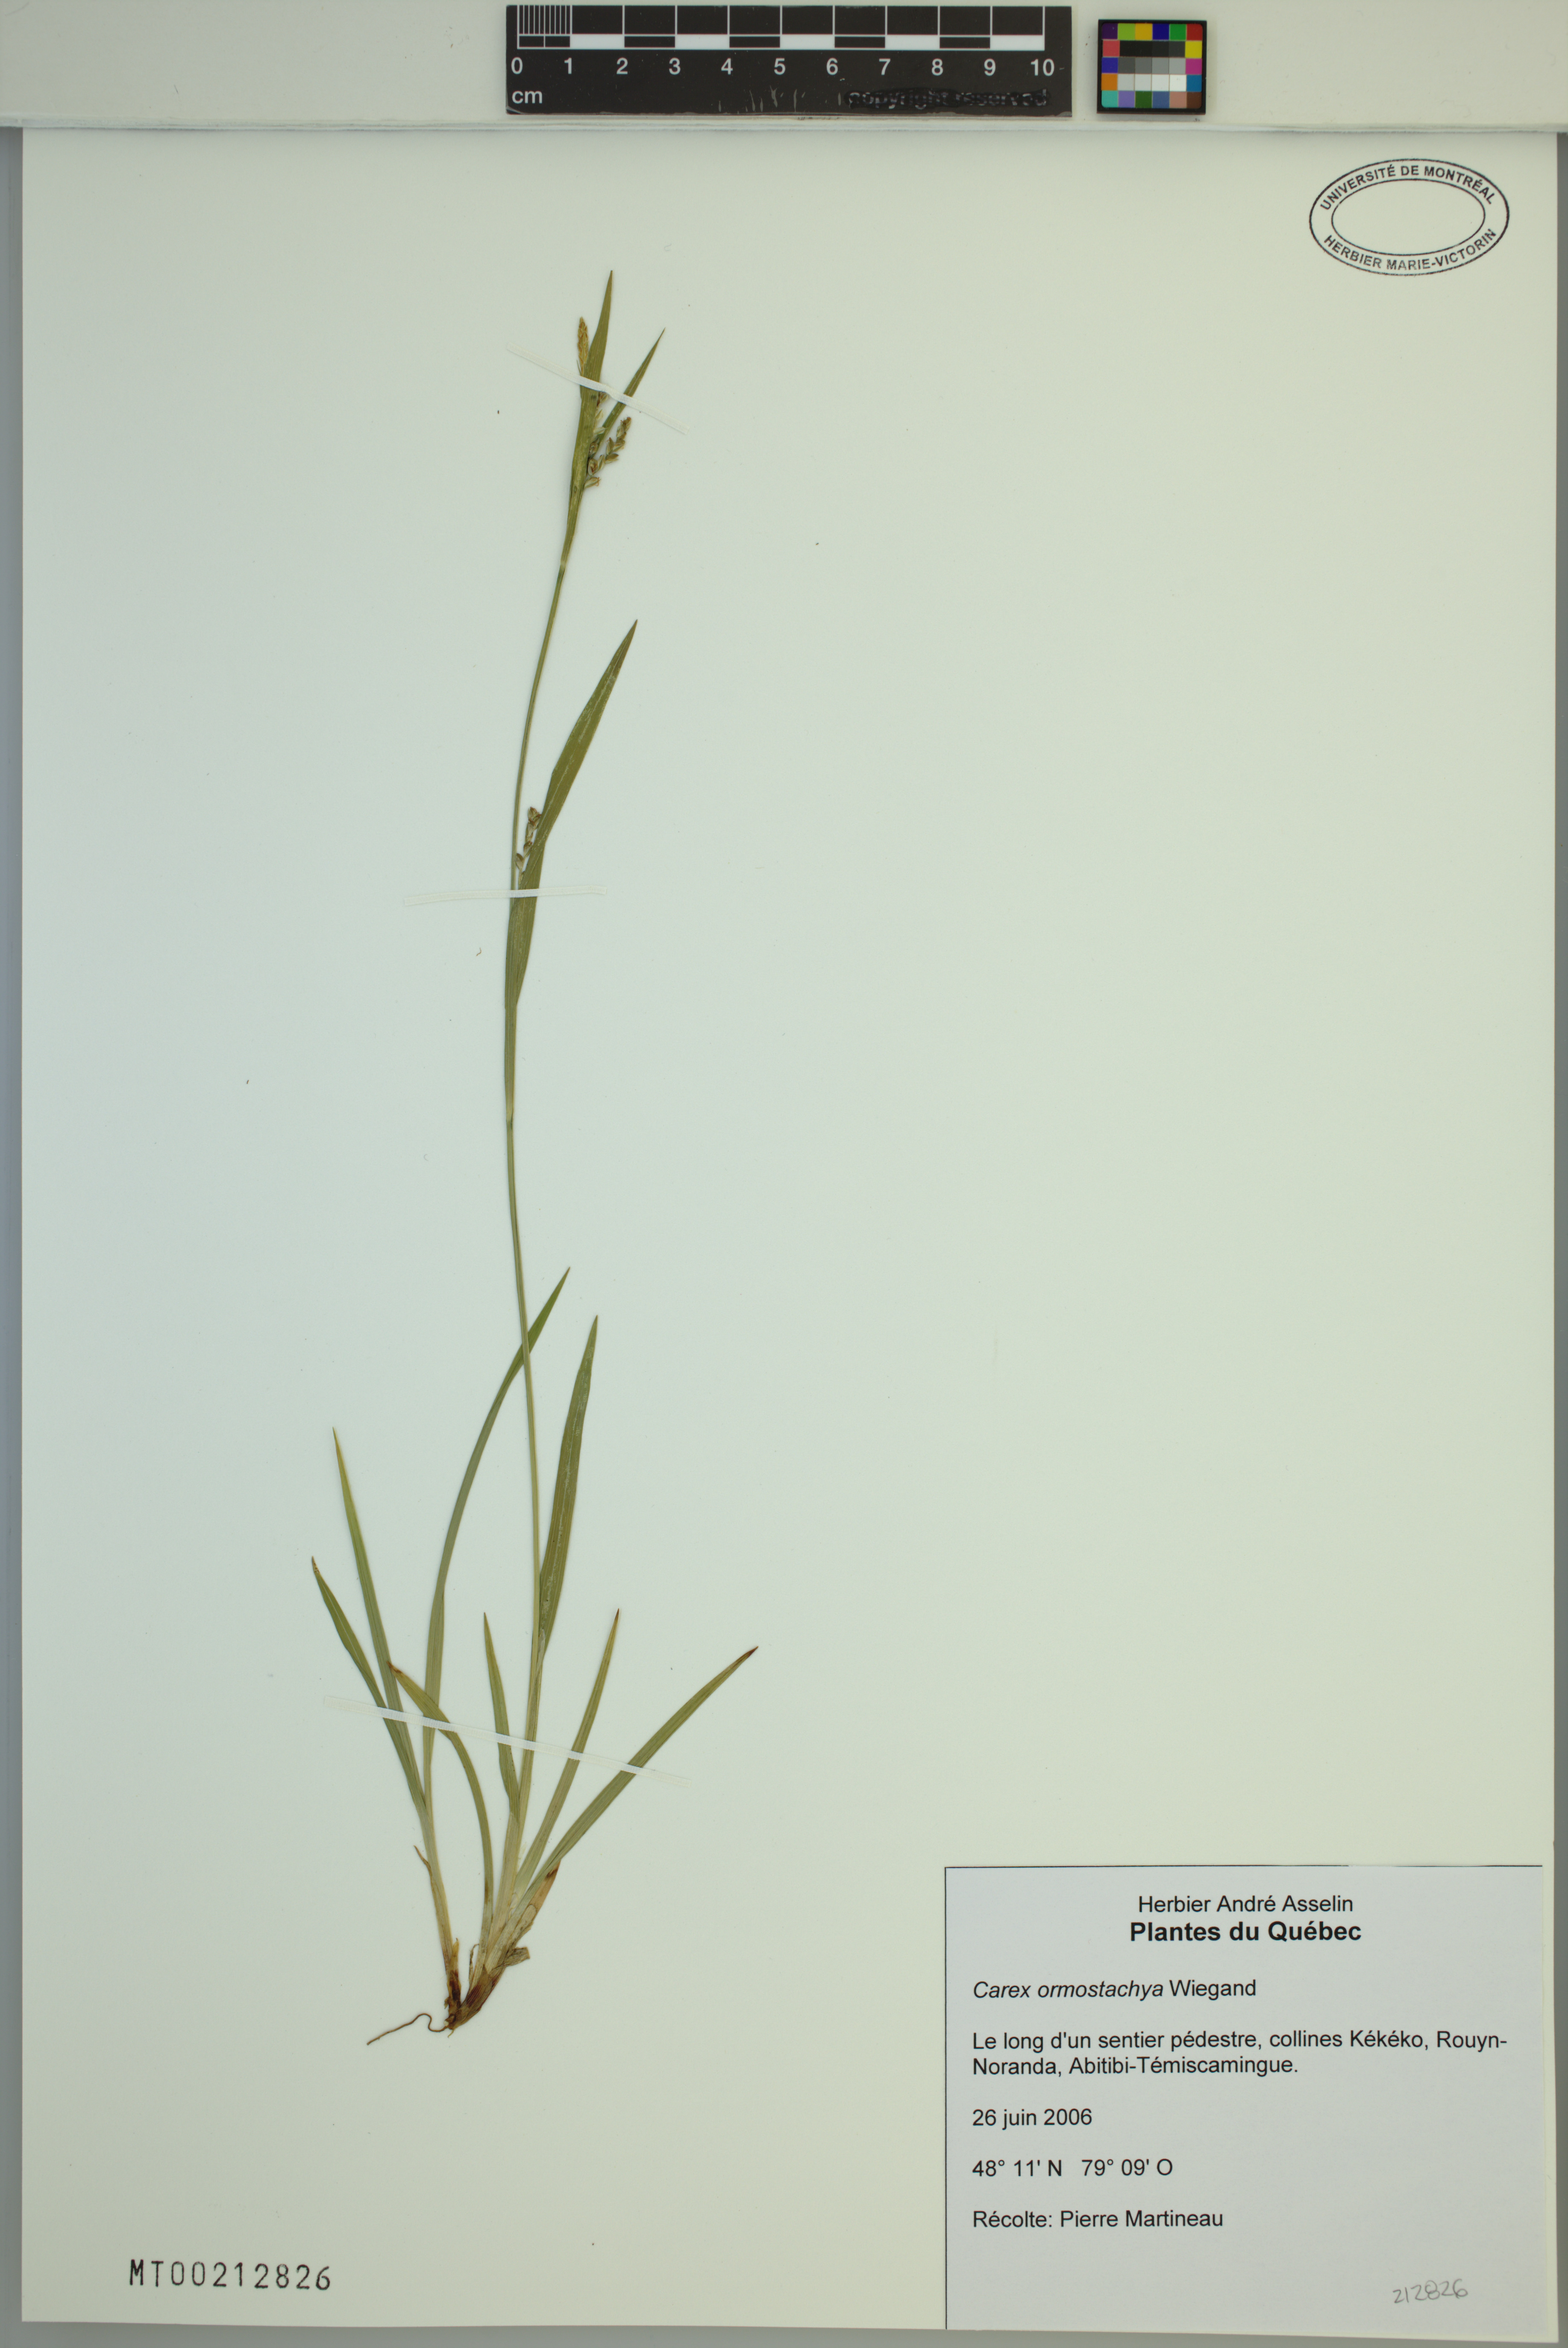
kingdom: Plantae
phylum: Tracheophyta
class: Liliopsida
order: Poales
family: Cyperaceae
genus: Carex
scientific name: Carex ormostachya
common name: Necklace spike sedge
